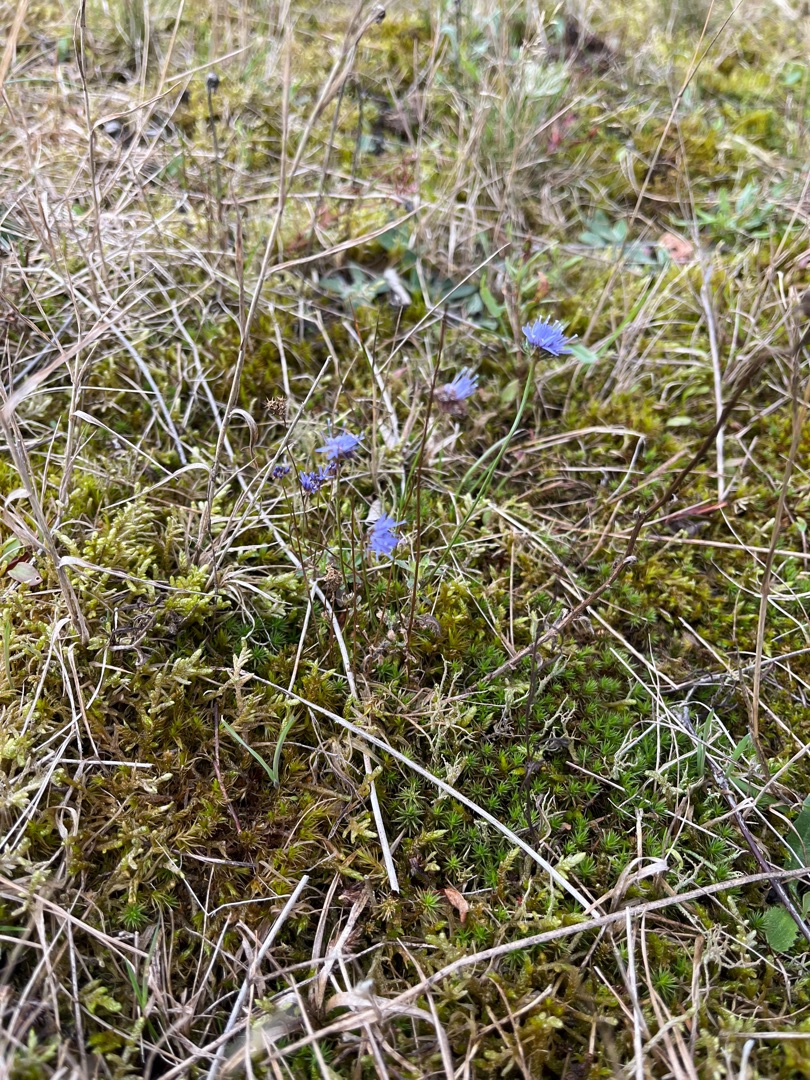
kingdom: Plantae
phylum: Tracheophyta
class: Magnoliopsida
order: Asterales
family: Campanulaceae
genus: Jasione
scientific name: Jasione montana
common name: Blåmunke
